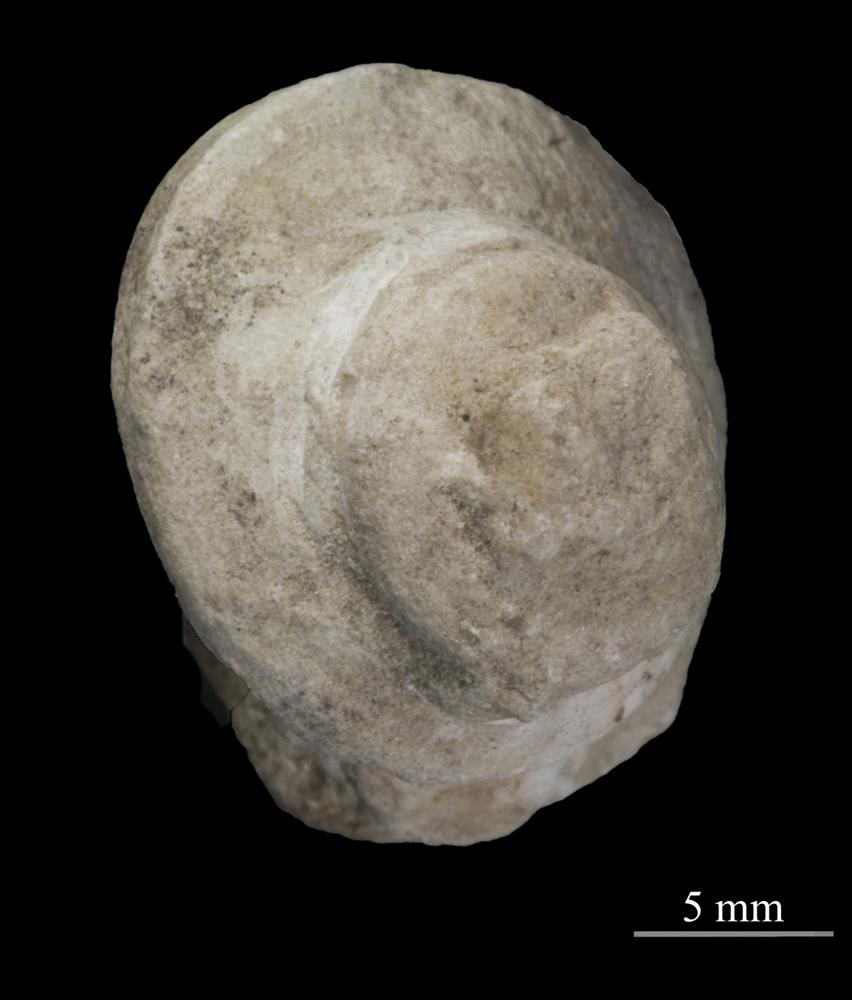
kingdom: Animalia
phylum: Mollusca
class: Gastropoda
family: Lophospiridae
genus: Loxoplocus
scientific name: Loxoplocus Turbo silurica
